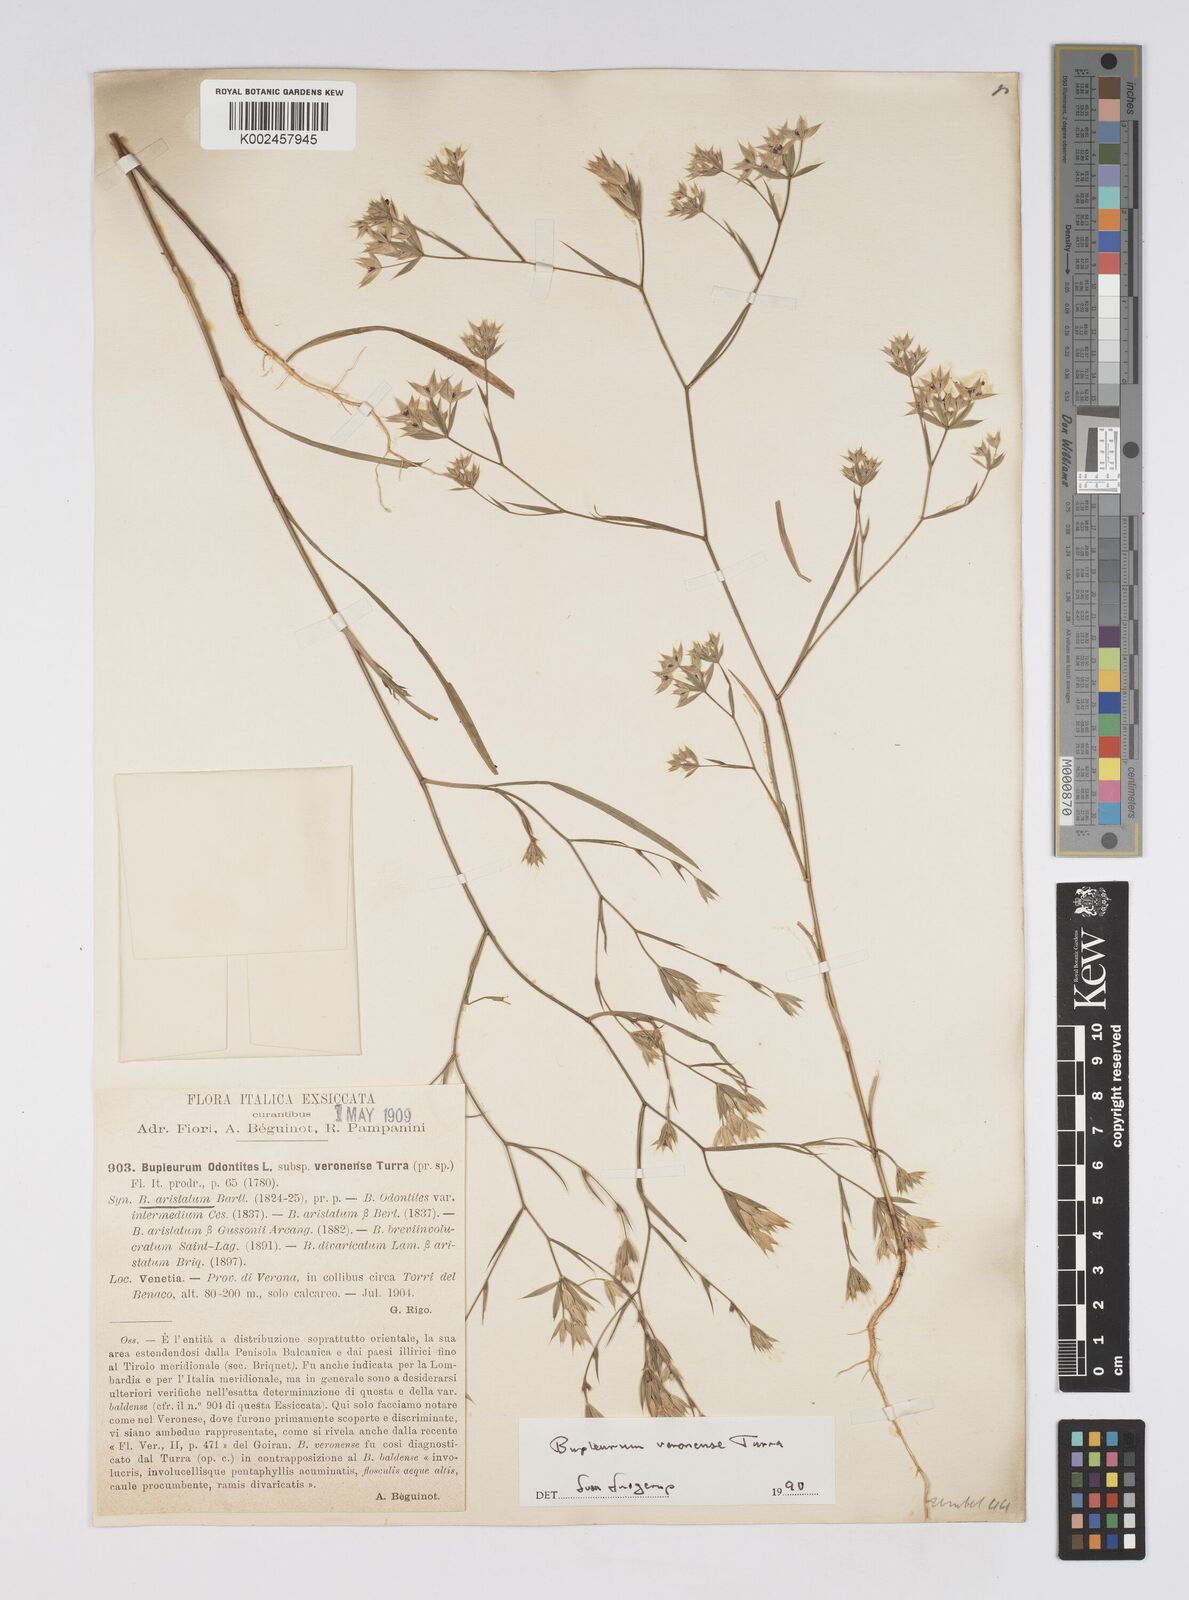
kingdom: Plantae
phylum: Tracheophyta
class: Magnoliopsida
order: Apiales
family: Apiaceae
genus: Bupleurum
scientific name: Bupleurum glumaceum
